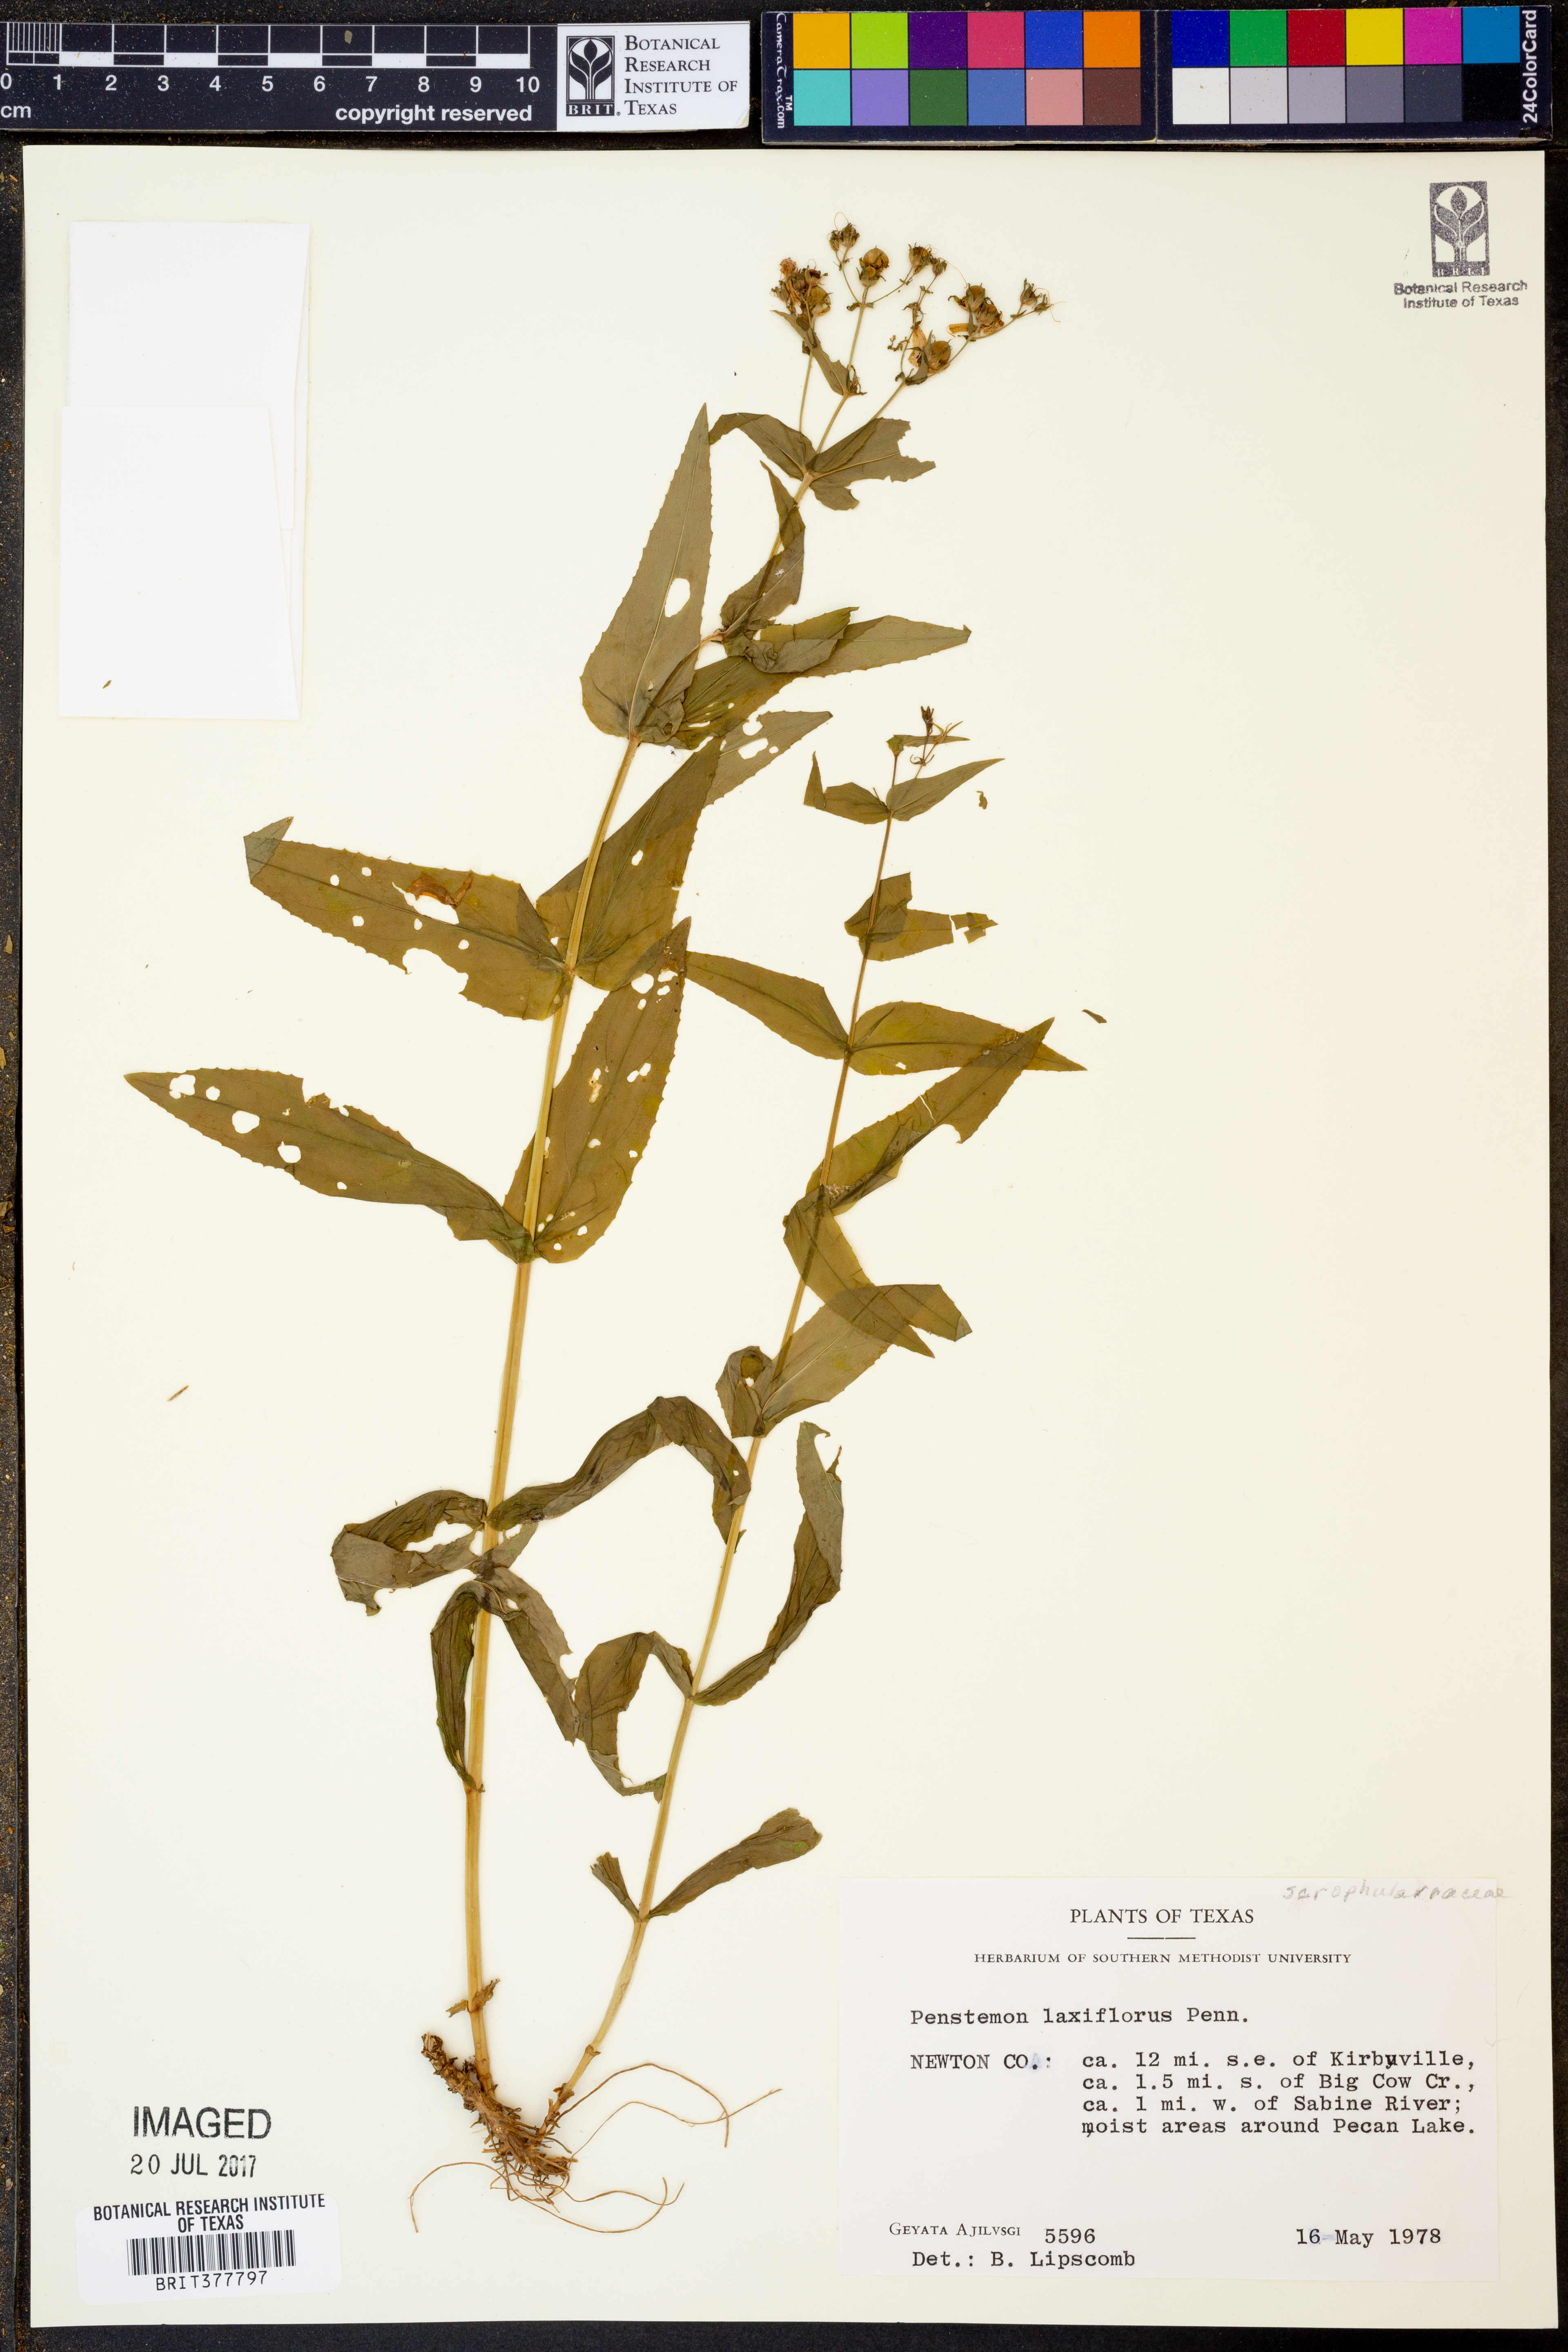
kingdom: Plantae
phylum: Tracheophyta
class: Magnoliopsida
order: Lamiales
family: Plantaginaceae
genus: Penstemon
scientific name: Penstemon laxiflorus
